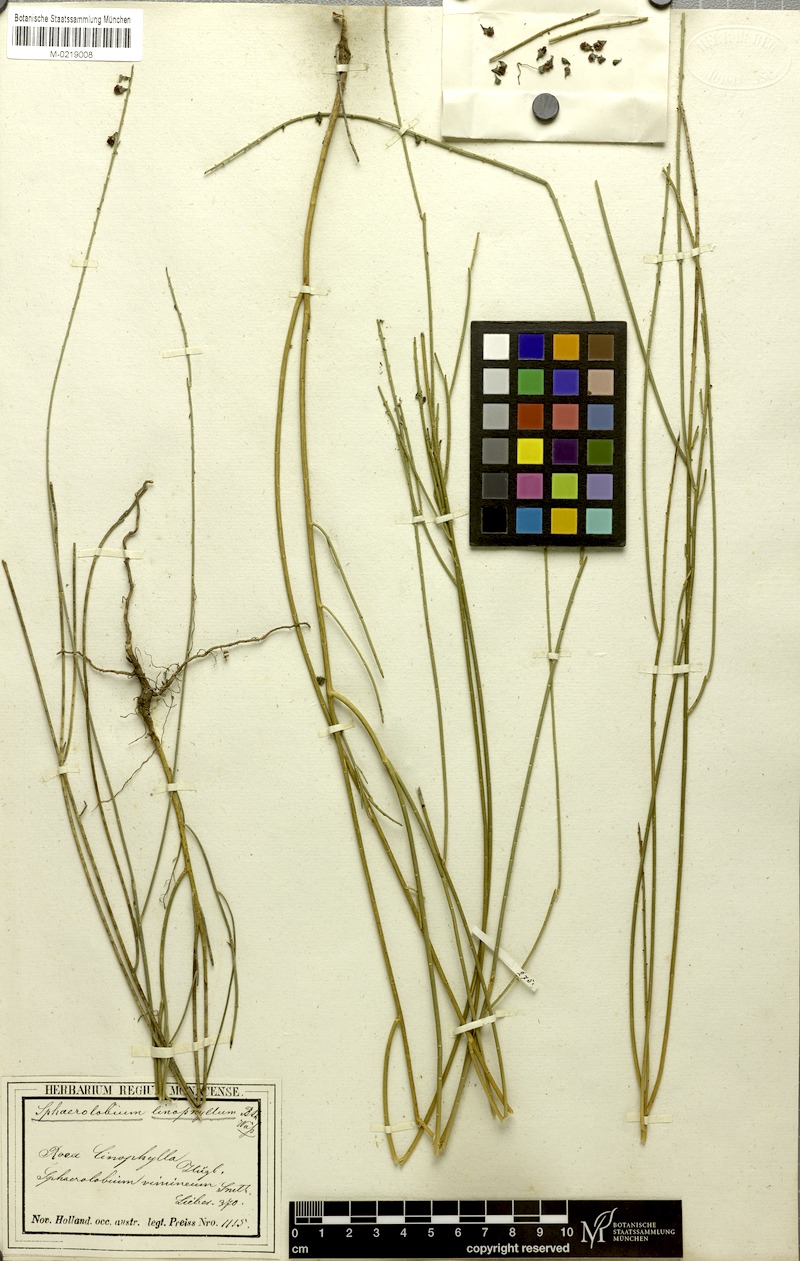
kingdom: Plantae
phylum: Tracheophyta
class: Magnoliopsida
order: Fabales
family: Fabaceae
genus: Sphaerolobium
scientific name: Sphaerolobium linophyllum
